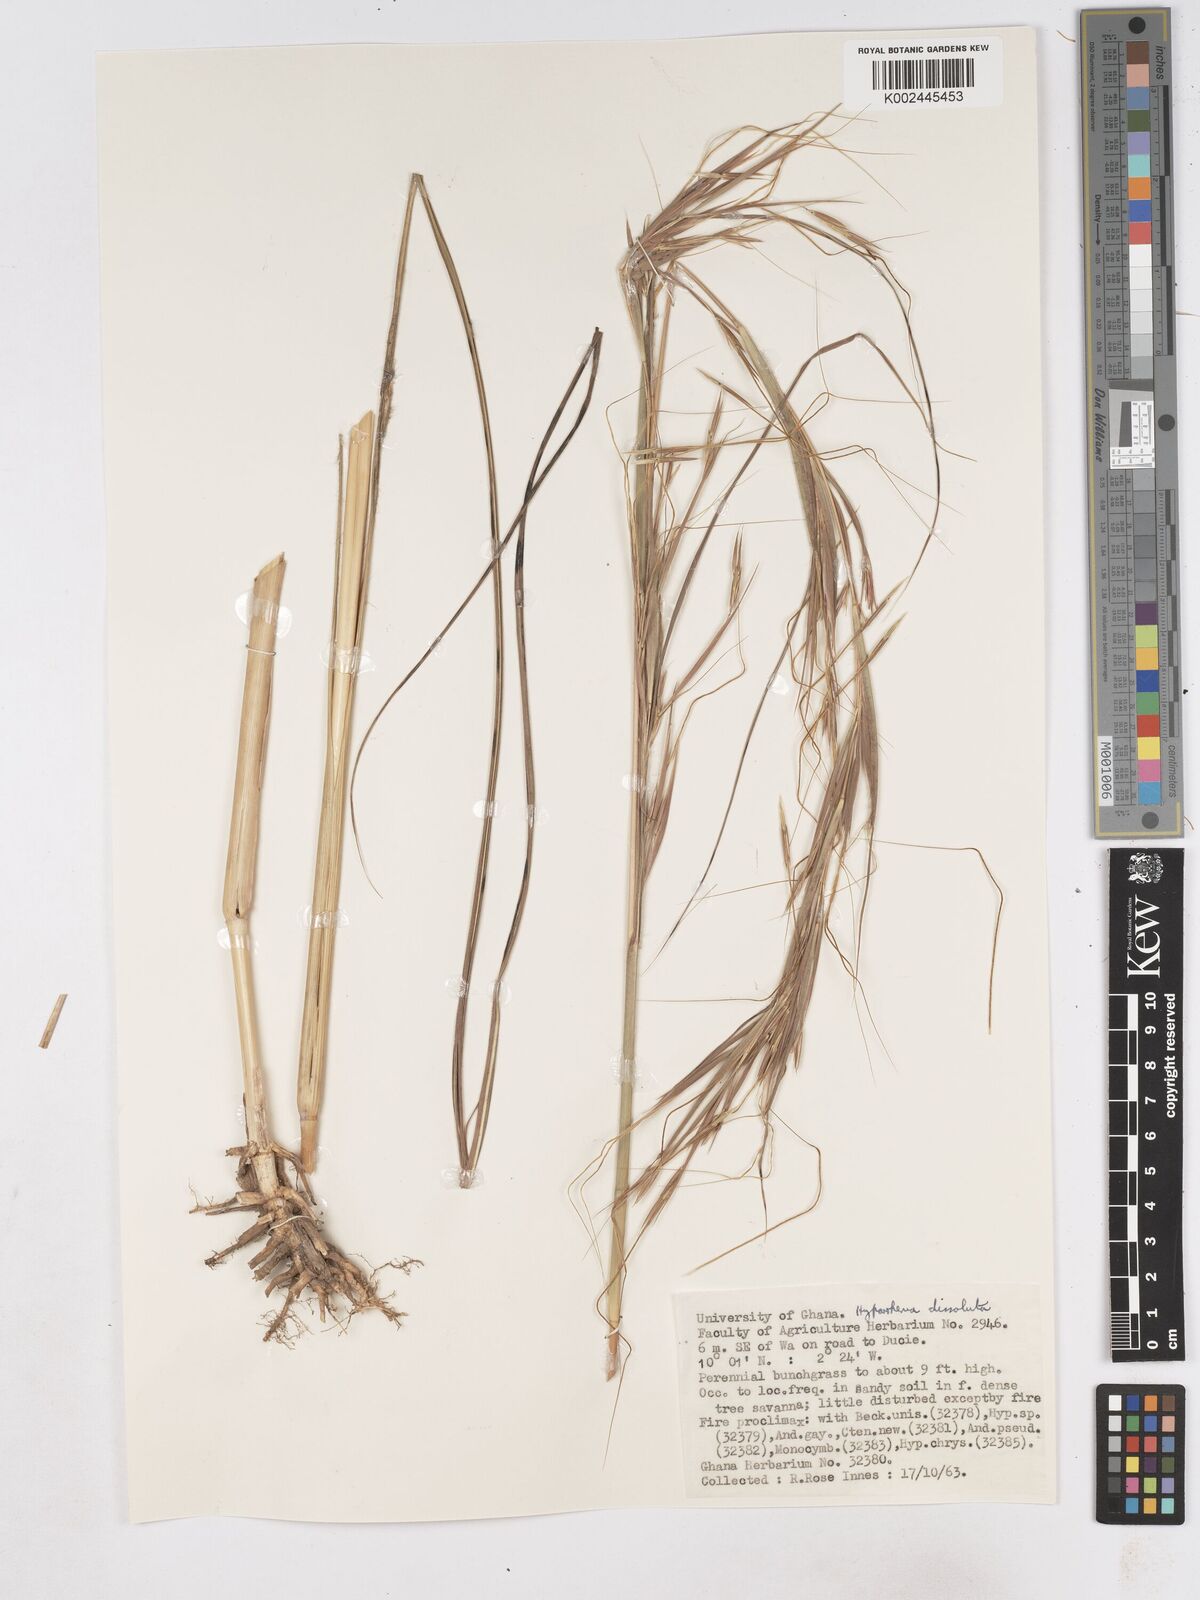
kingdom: Plantae
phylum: Tracheophyta
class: Liliopsida
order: Poales
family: Poaceae
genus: Hyperthelia
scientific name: Hyperthelia dissoluta
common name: Yellow thatching grass
